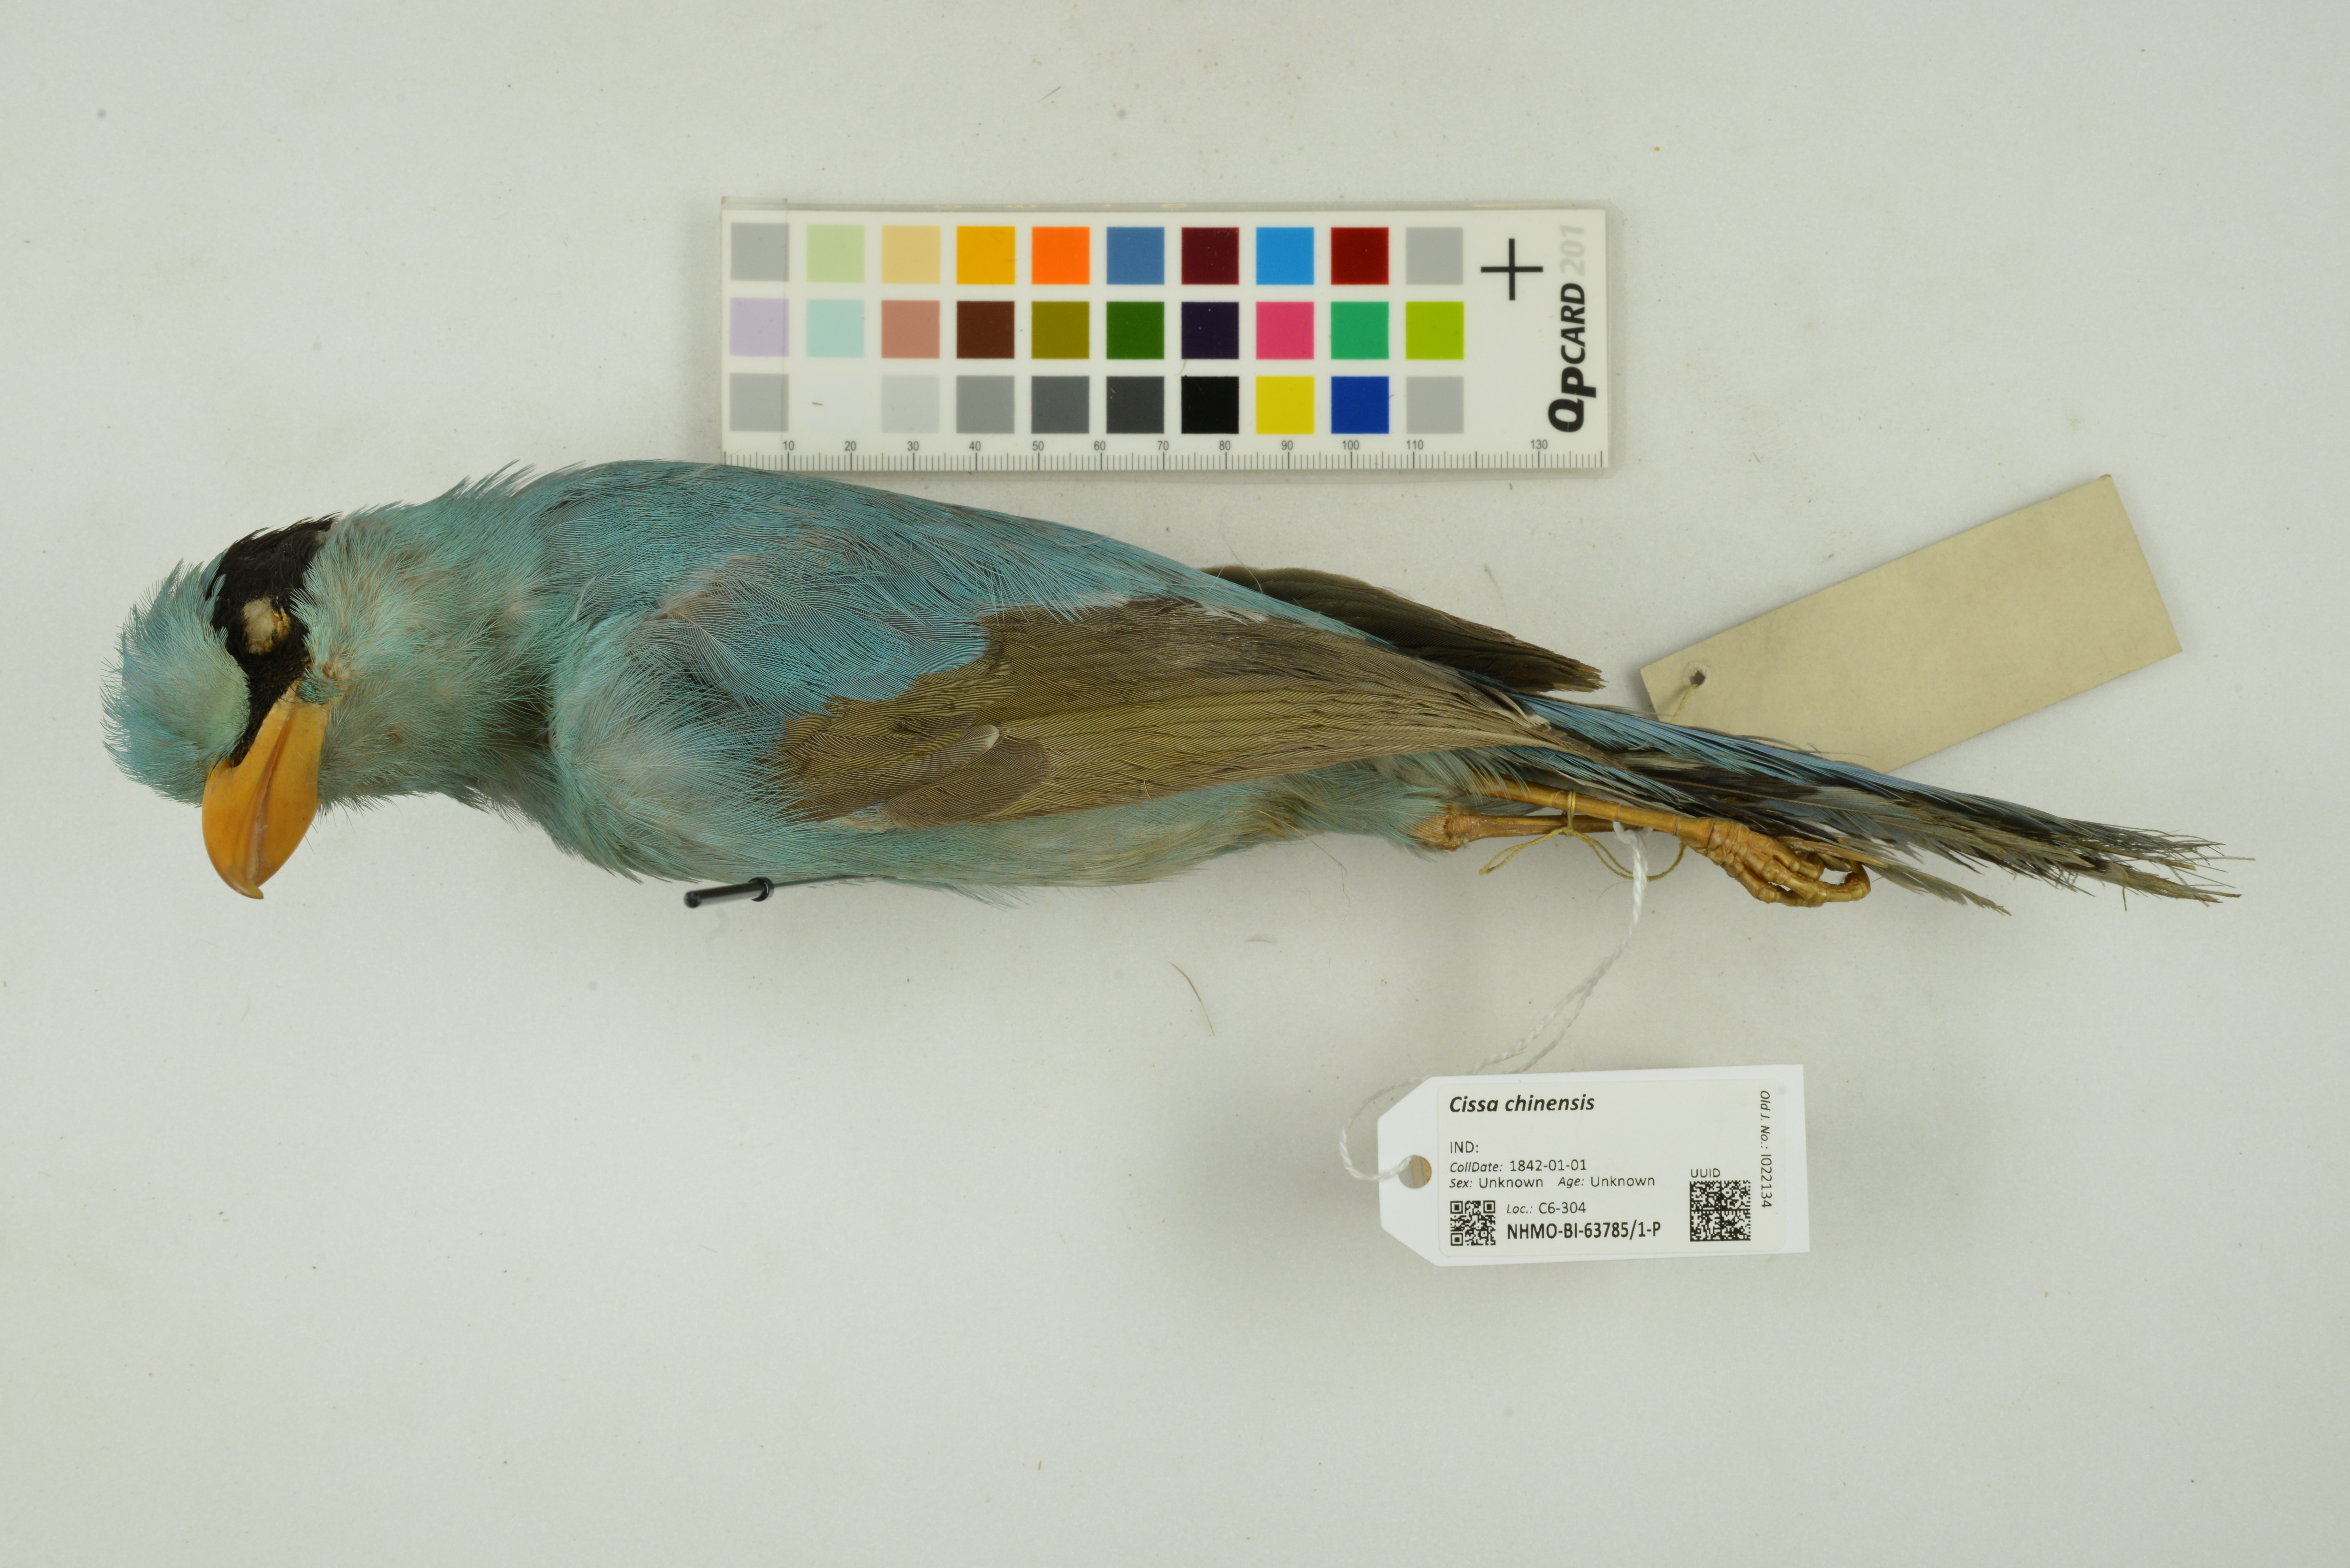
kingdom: Animalia
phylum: Chordata
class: Aves
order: Passeriformes
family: Corvidae
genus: Cissa
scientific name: Cissa chinensis
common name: Common green magpie
